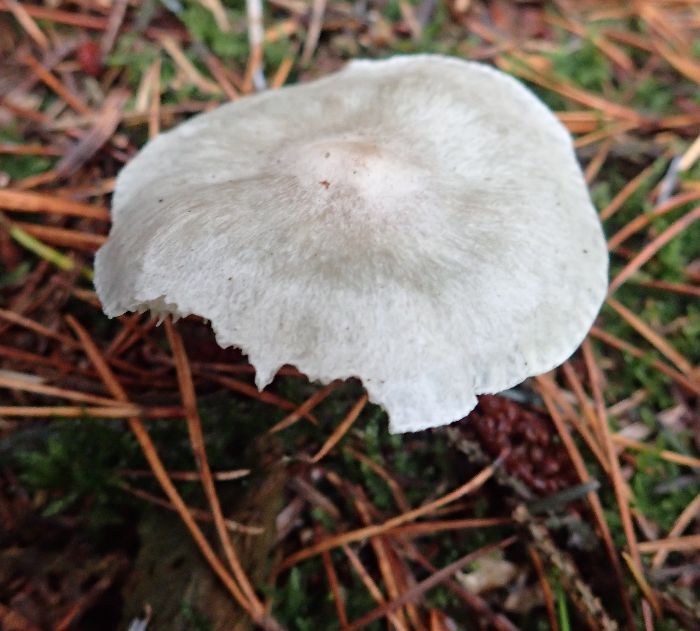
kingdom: Fungi
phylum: Basidiomycota
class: Agaricomycetes
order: Agaricales
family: Tricholomataceae
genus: Clitocybe
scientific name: Clitocybe odora
